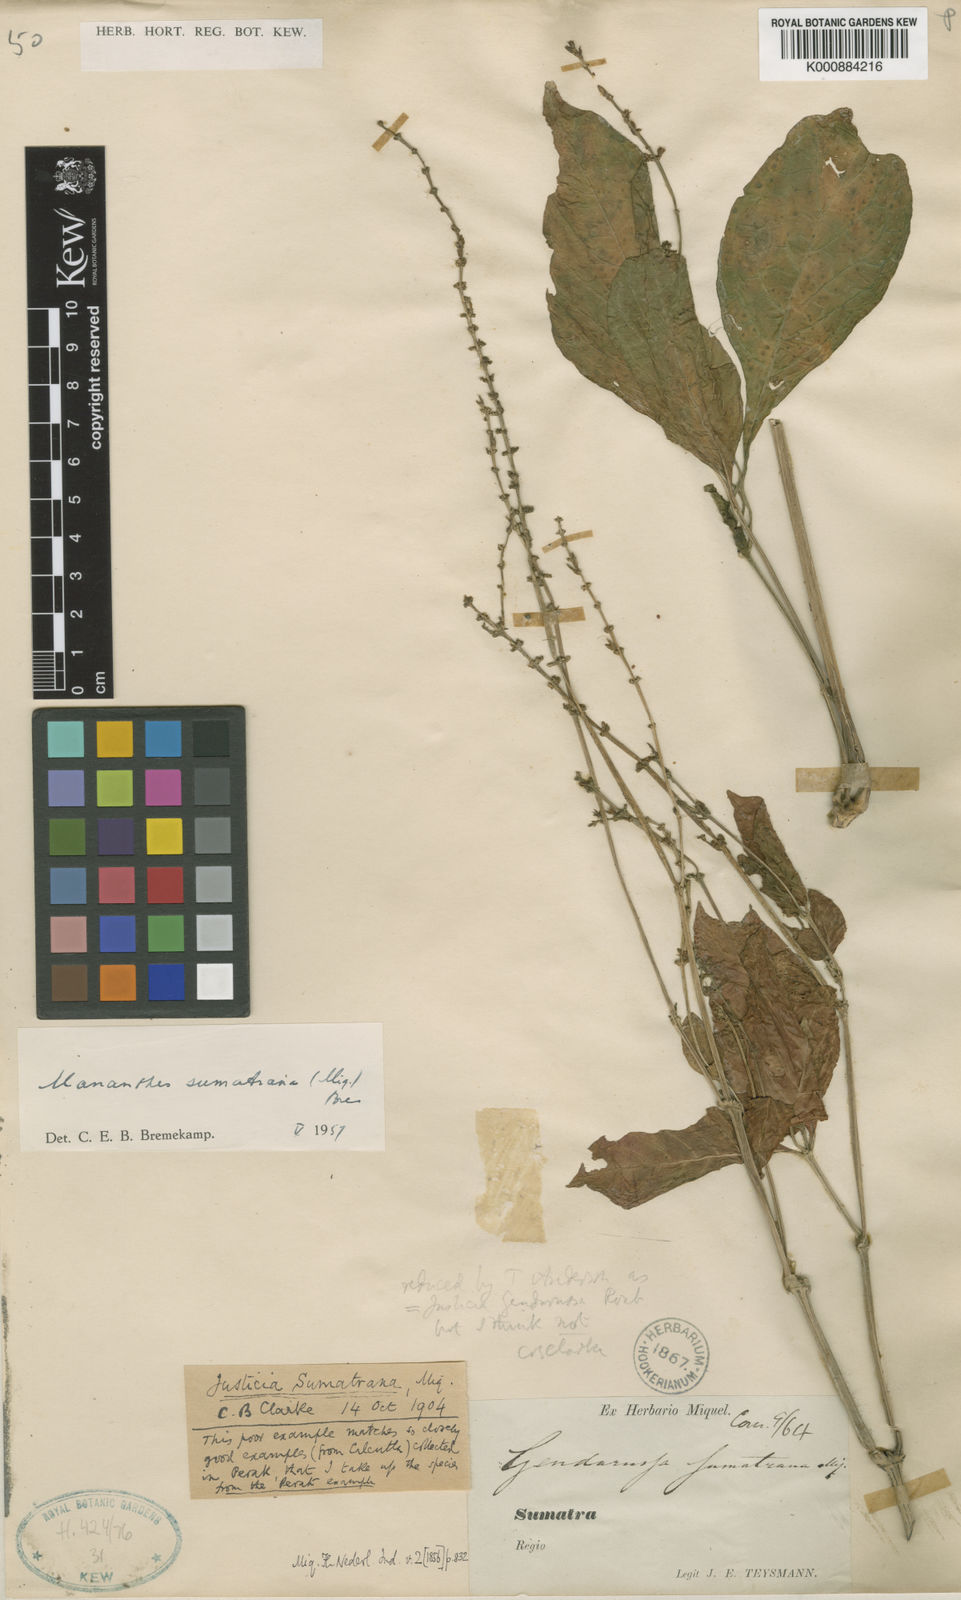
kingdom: Plantae
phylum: Tracheophyta
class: Magnoliopsida
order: Lamiales
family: Acanthaceae
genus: Justicia
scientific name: Justicia
